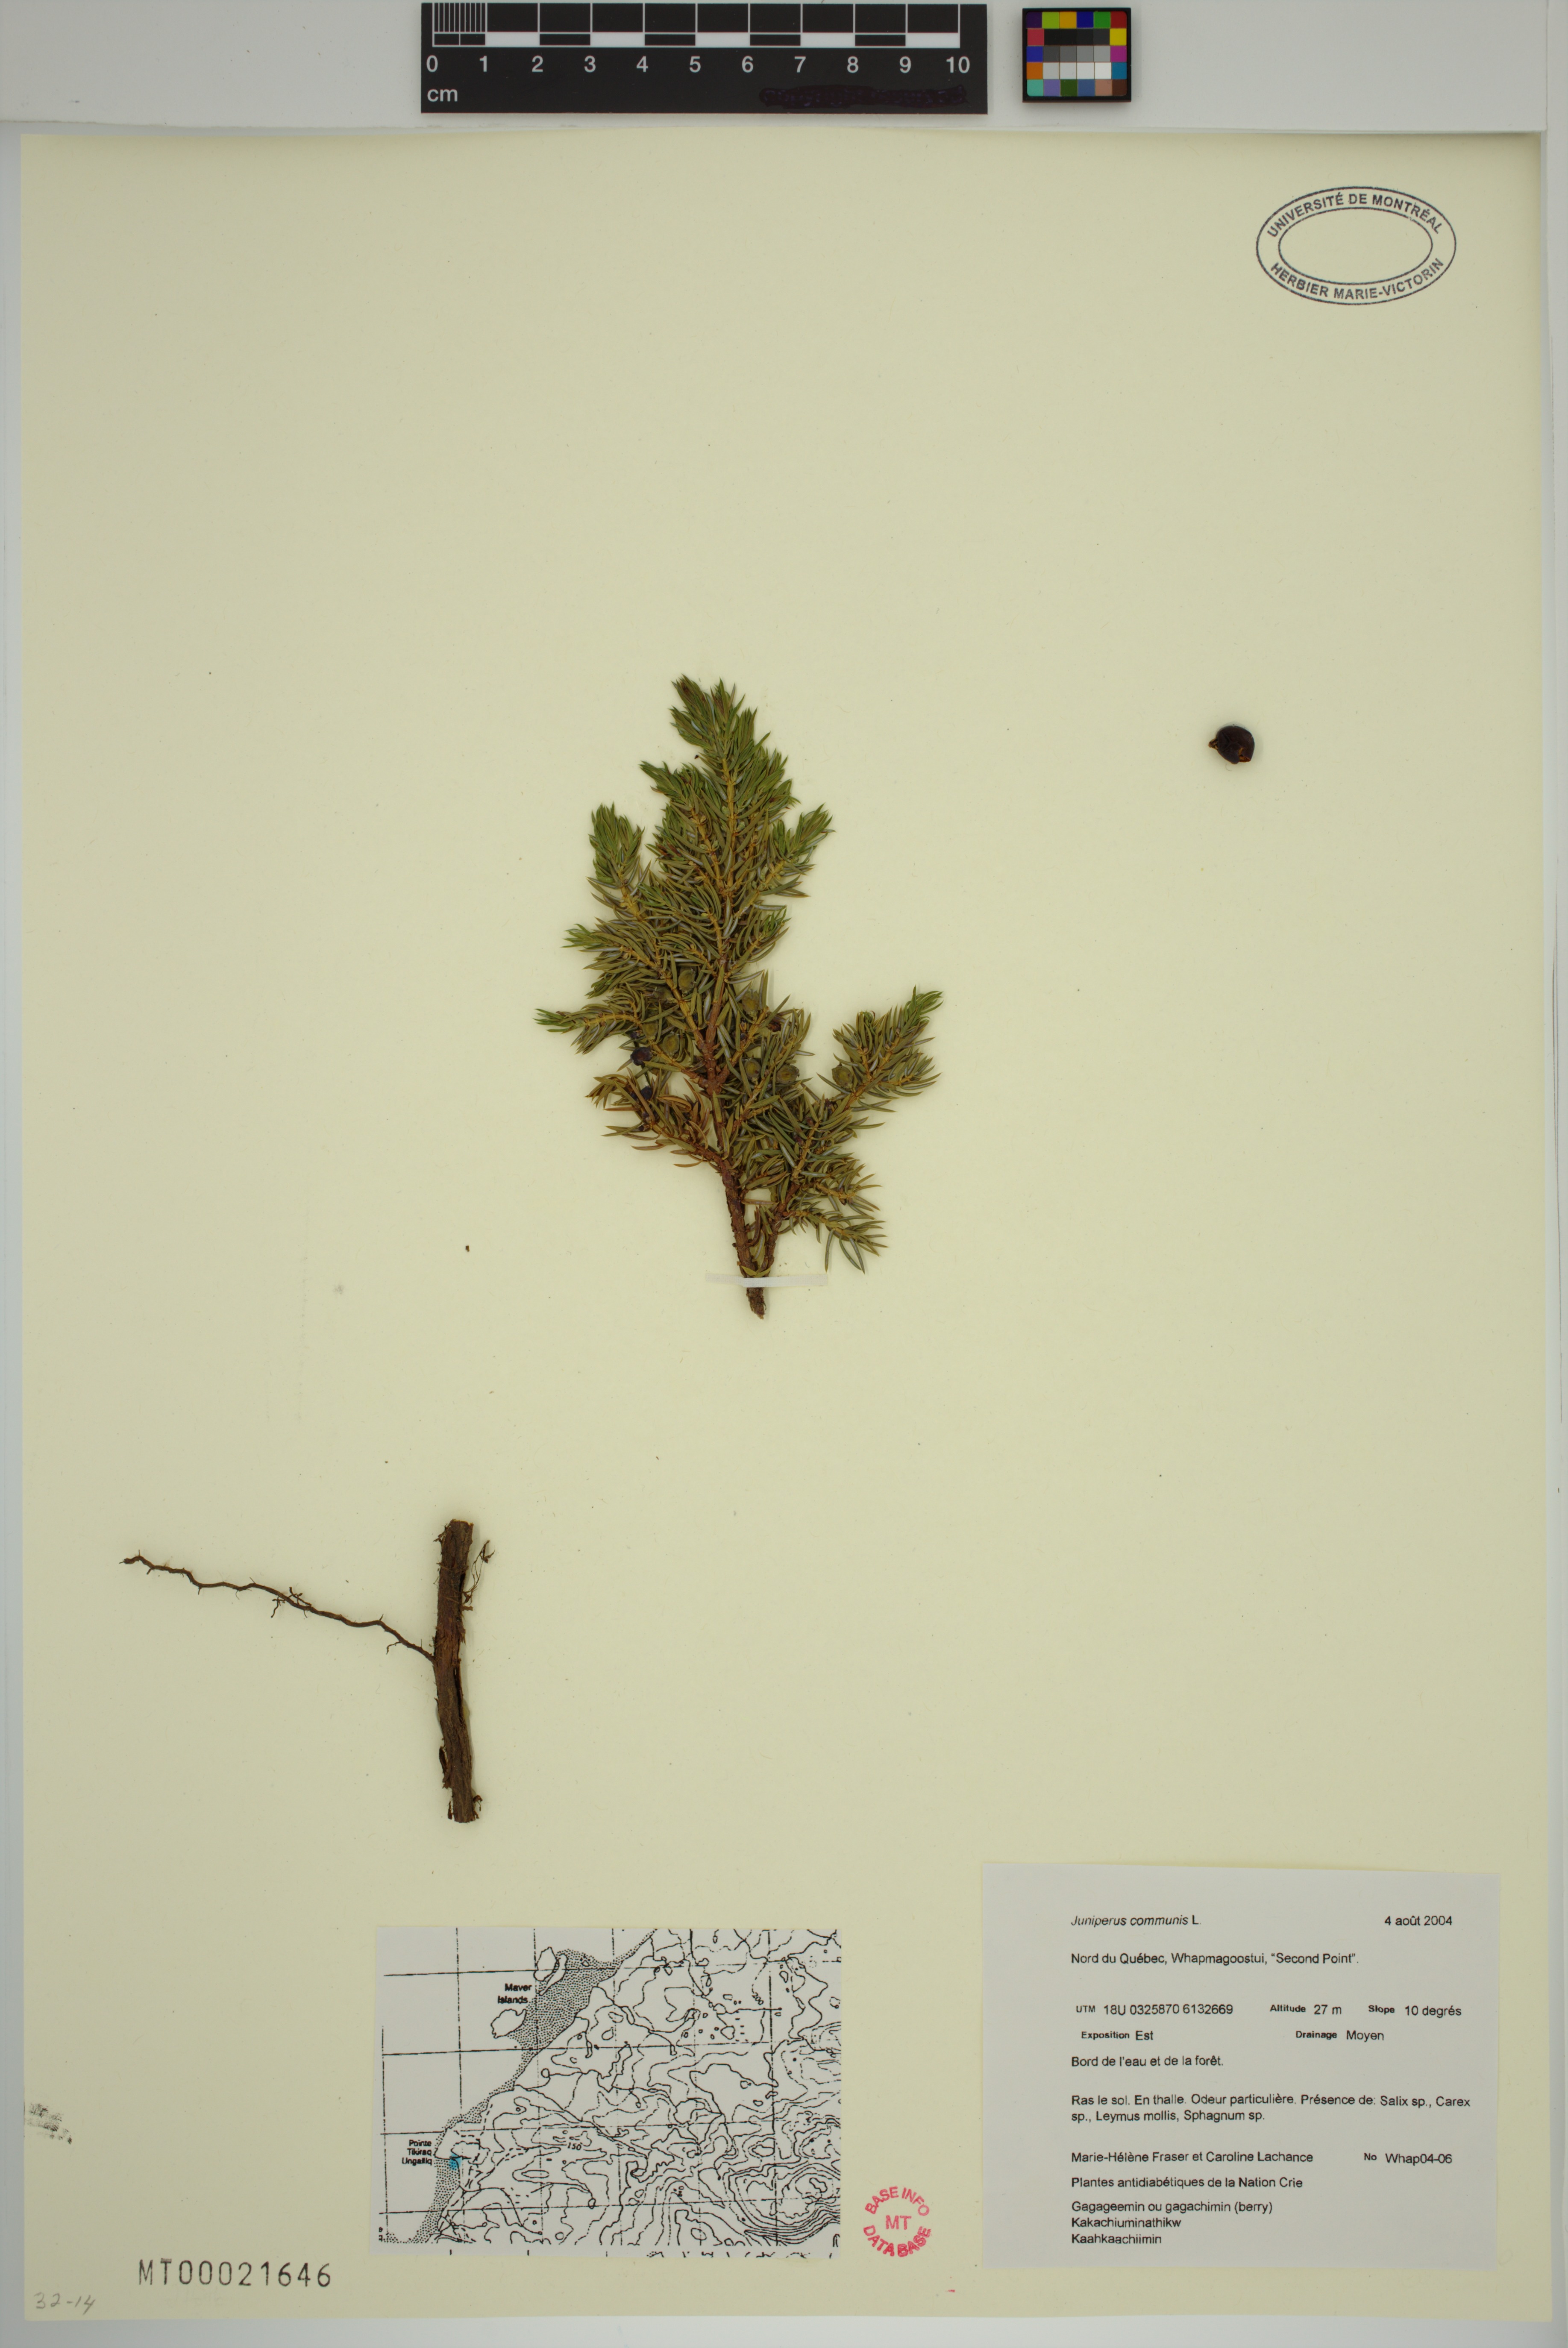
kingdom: Plantae
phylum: Tracheophyta
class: Pinopsida
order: Pinales
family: Cupressaceae
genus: Juniperus
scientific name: Juniperus communis
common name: Common juniper
